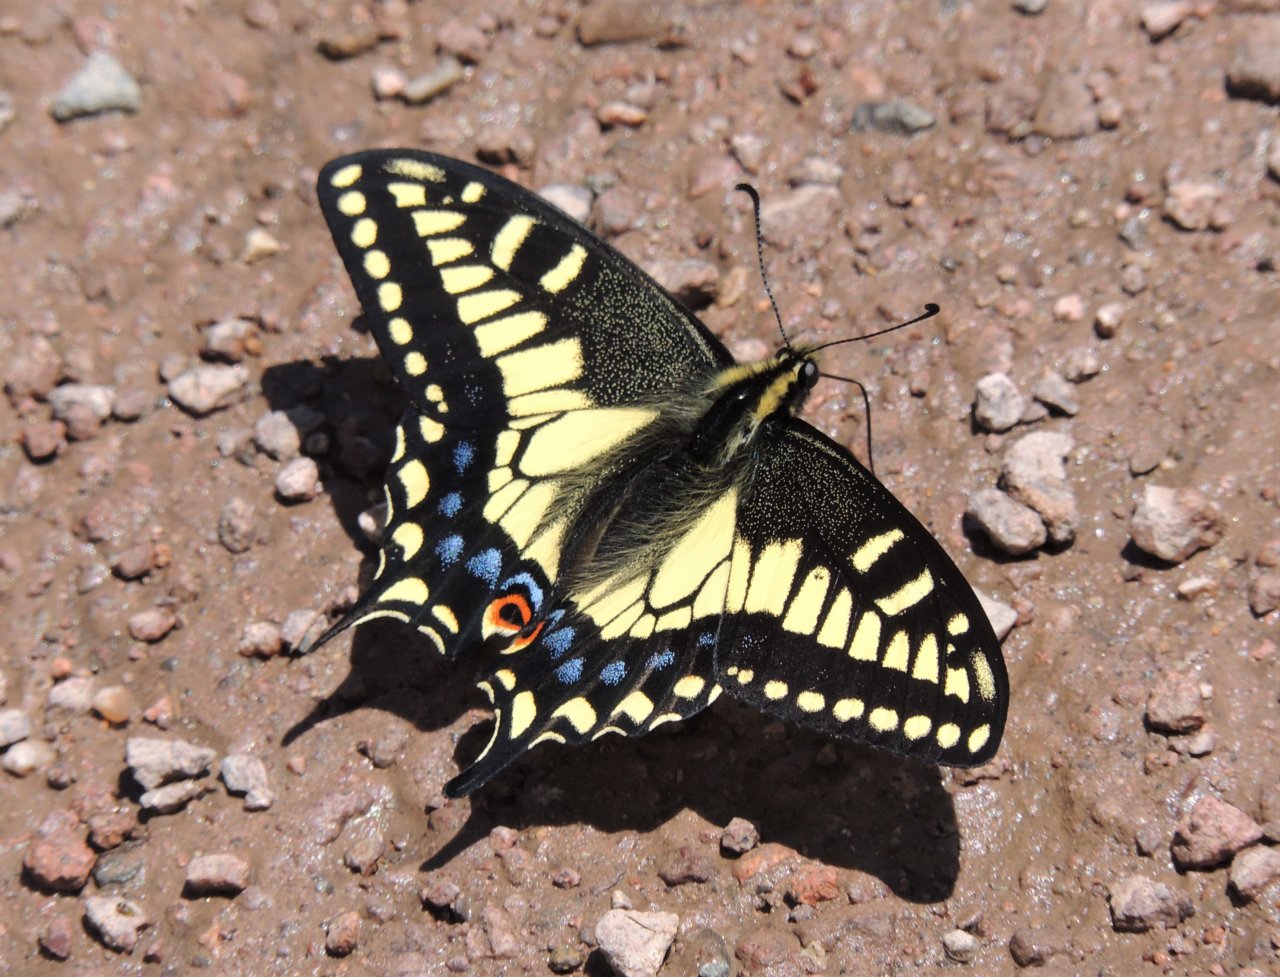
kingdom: Animalia
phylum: Arthropoda
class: Insecta
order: Lepidoptera
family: Papilionidae
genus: Papilio
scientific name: Papilio zelicaon
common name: Anise Swallowtail
